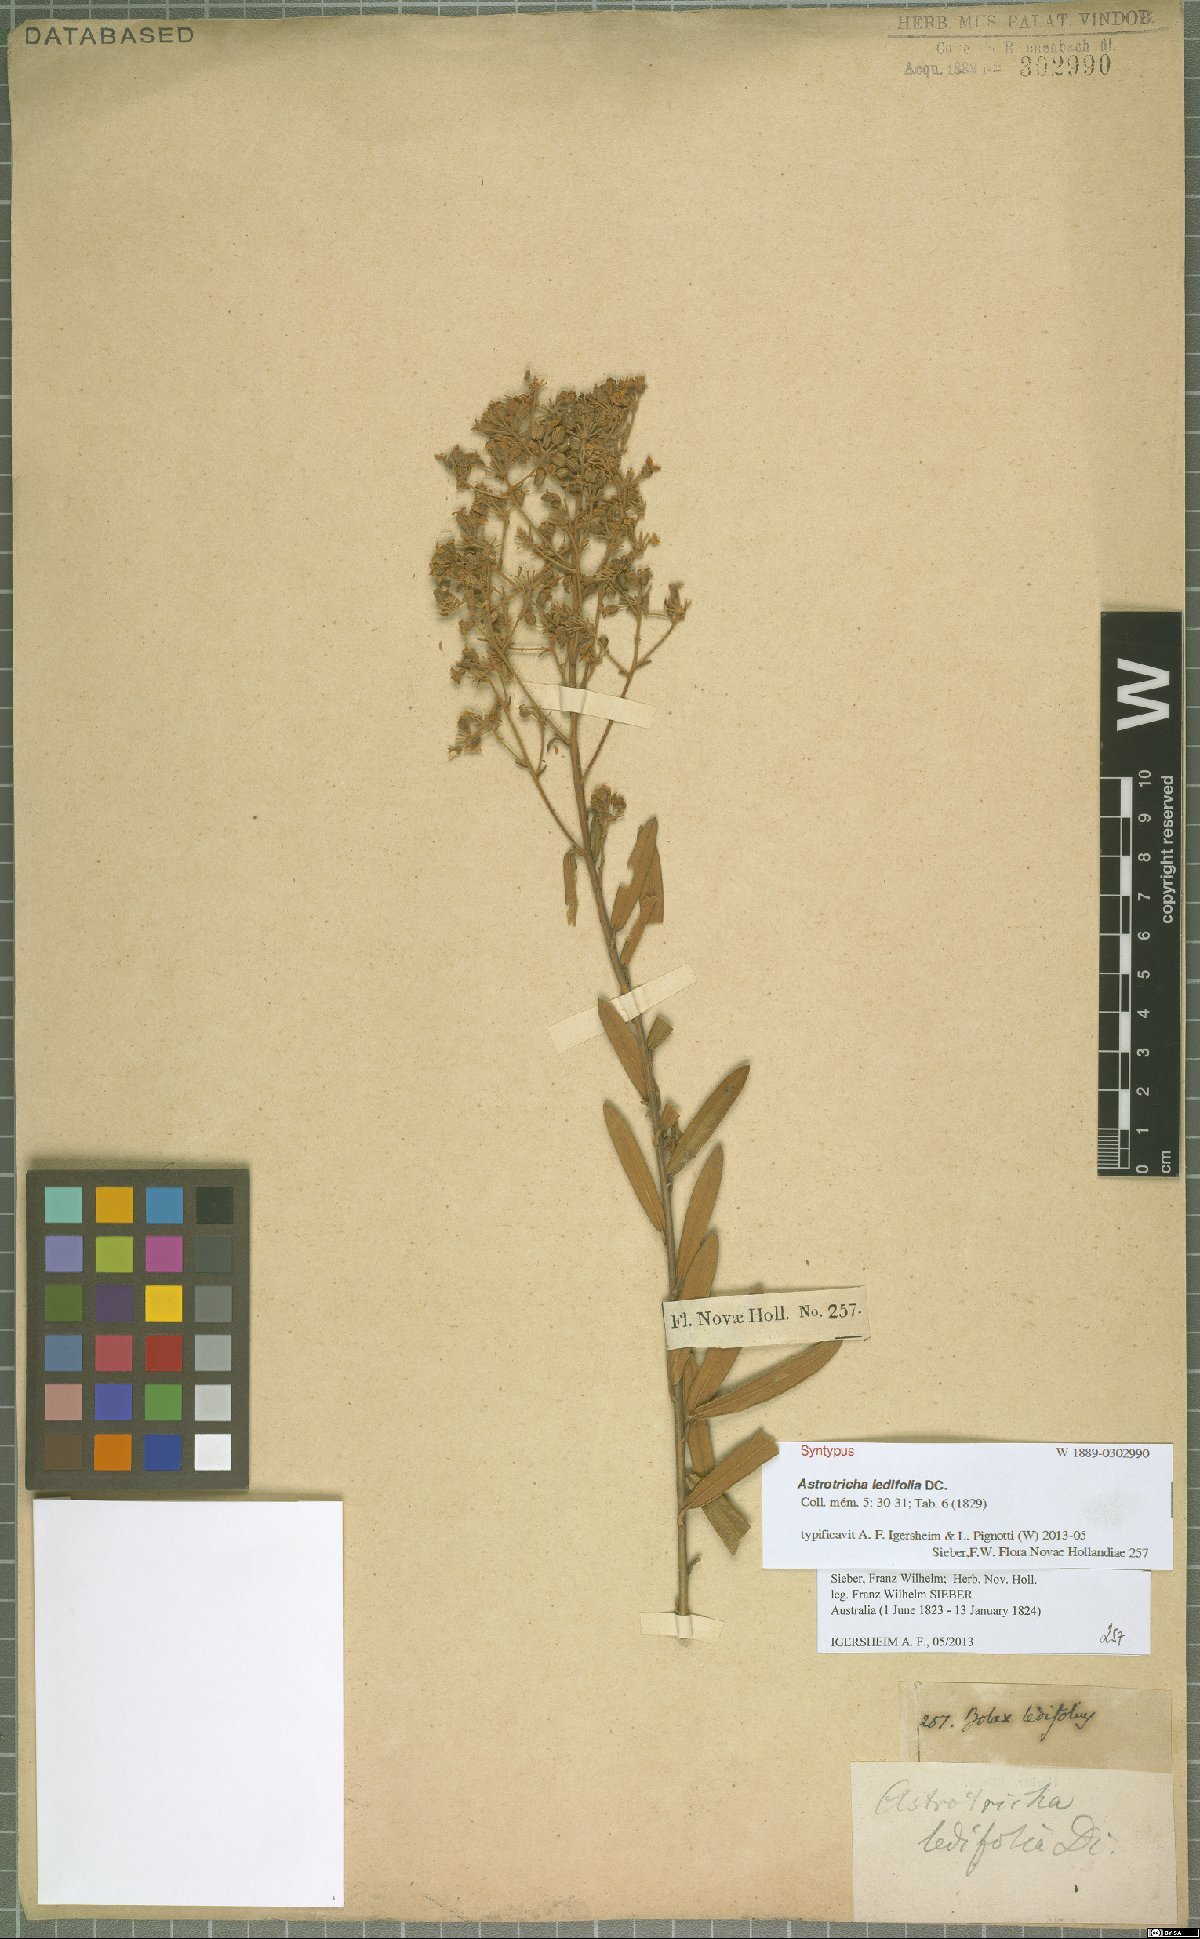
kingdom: Plantae
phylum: Tracheophyta
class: Magnoliopsida
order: Apiales
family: Araliaceae
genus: Astrotricha
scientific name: Astrotricha ledifolia
